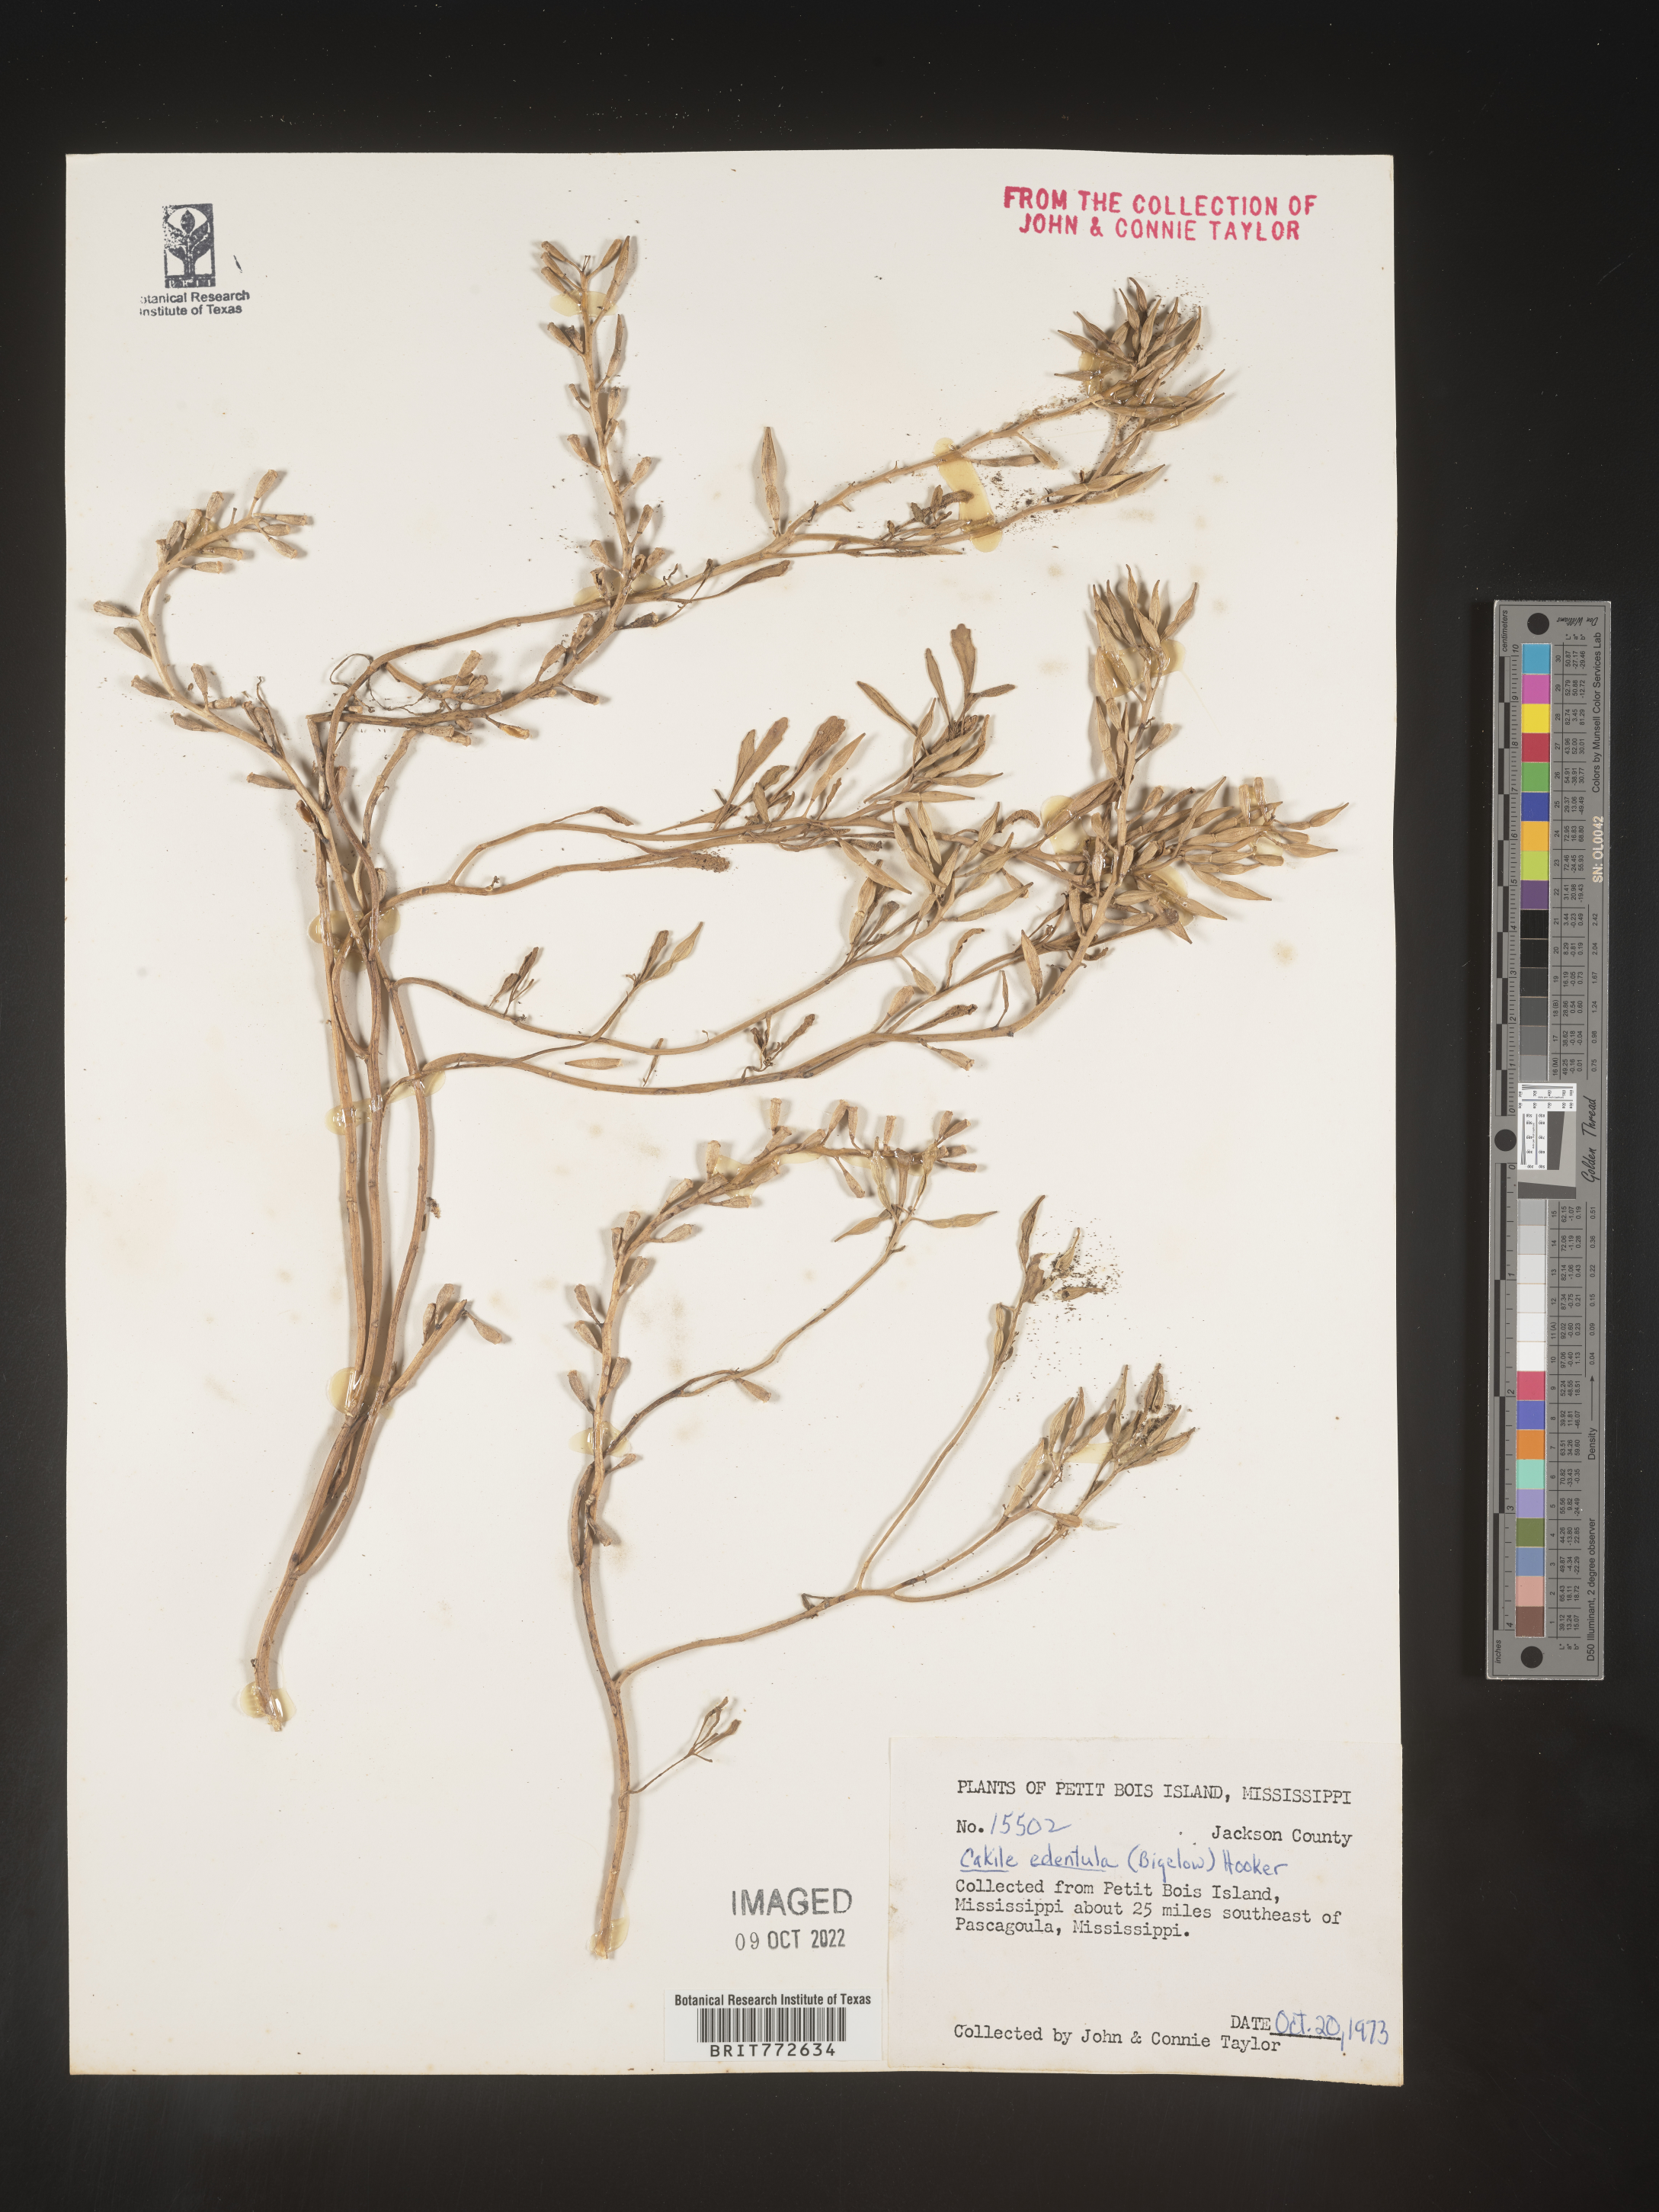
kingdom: Plantae
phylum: Tracheophyta
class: Magnoliopsida
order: Brassicales
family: Brassicaceae
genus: Cakile
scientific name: Cakile edentula
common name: American sea rocket
